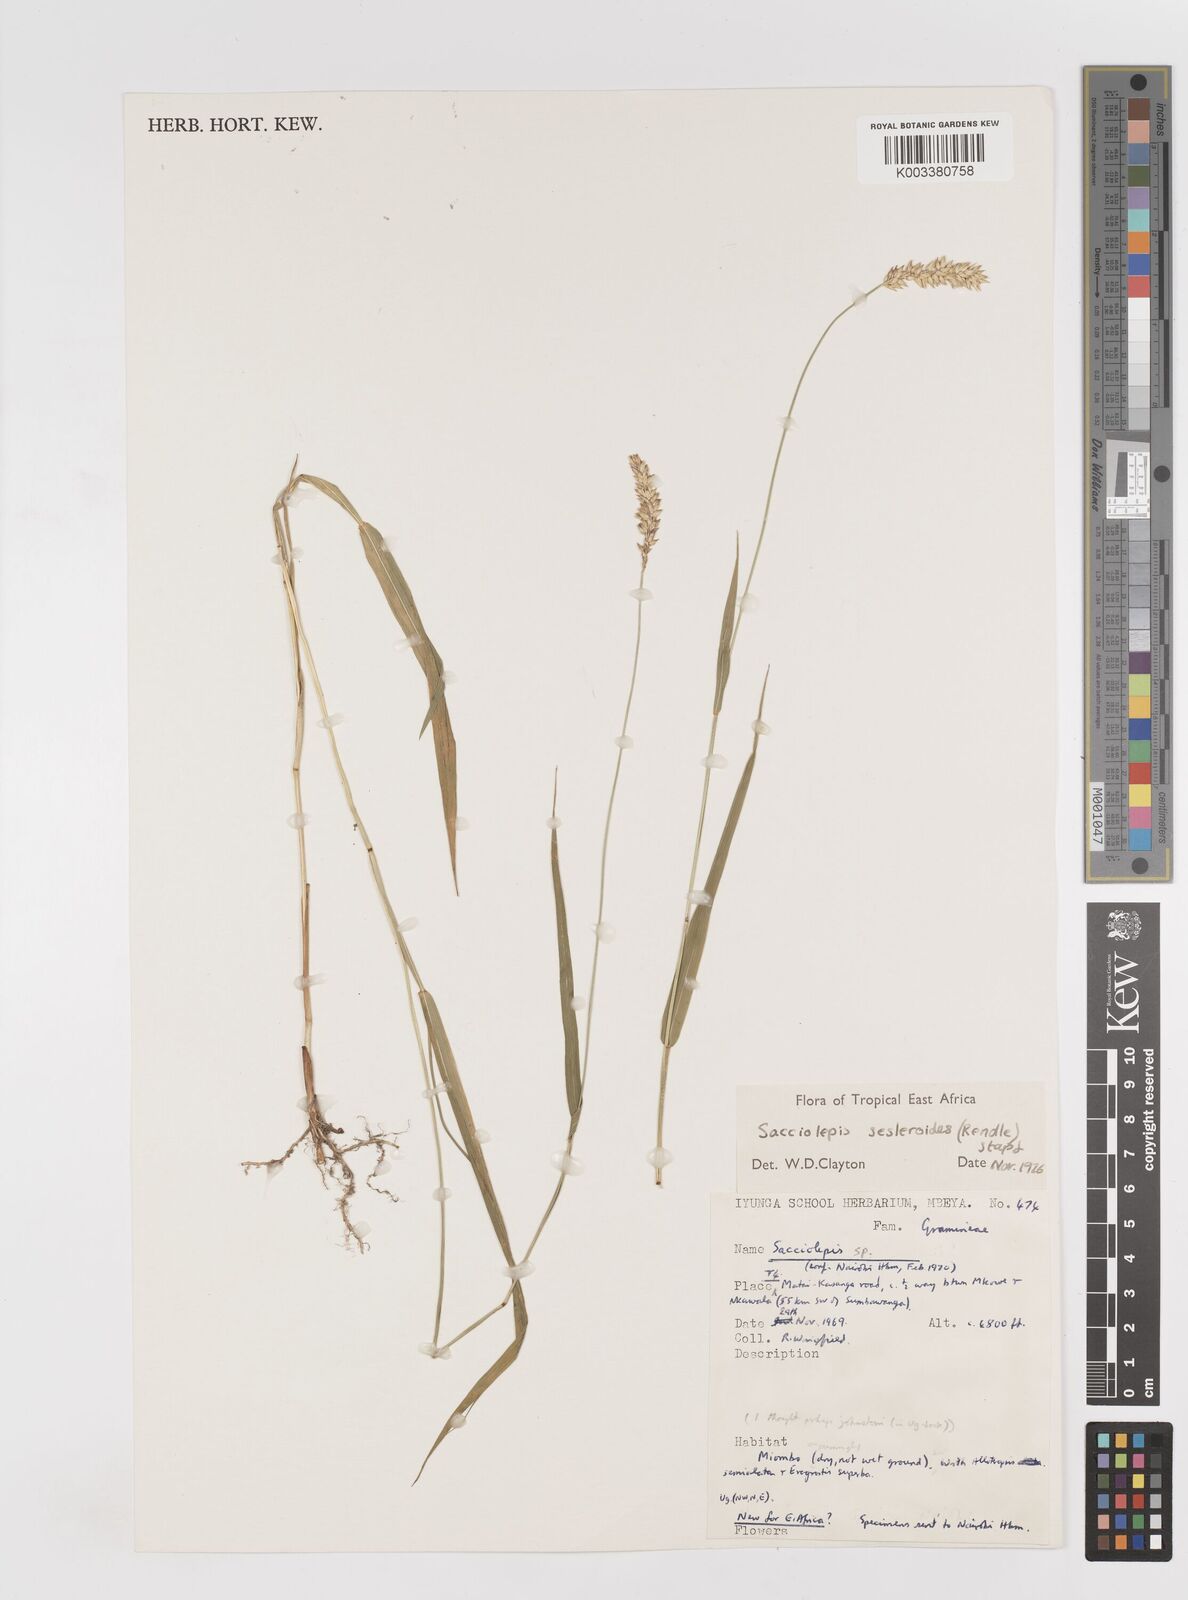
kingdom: Plantae
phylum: Tracheophyta
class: Liliopsida
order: Poales
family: Poaceae
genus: Sacciolepis
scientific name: Sacciolepis seslerioides
